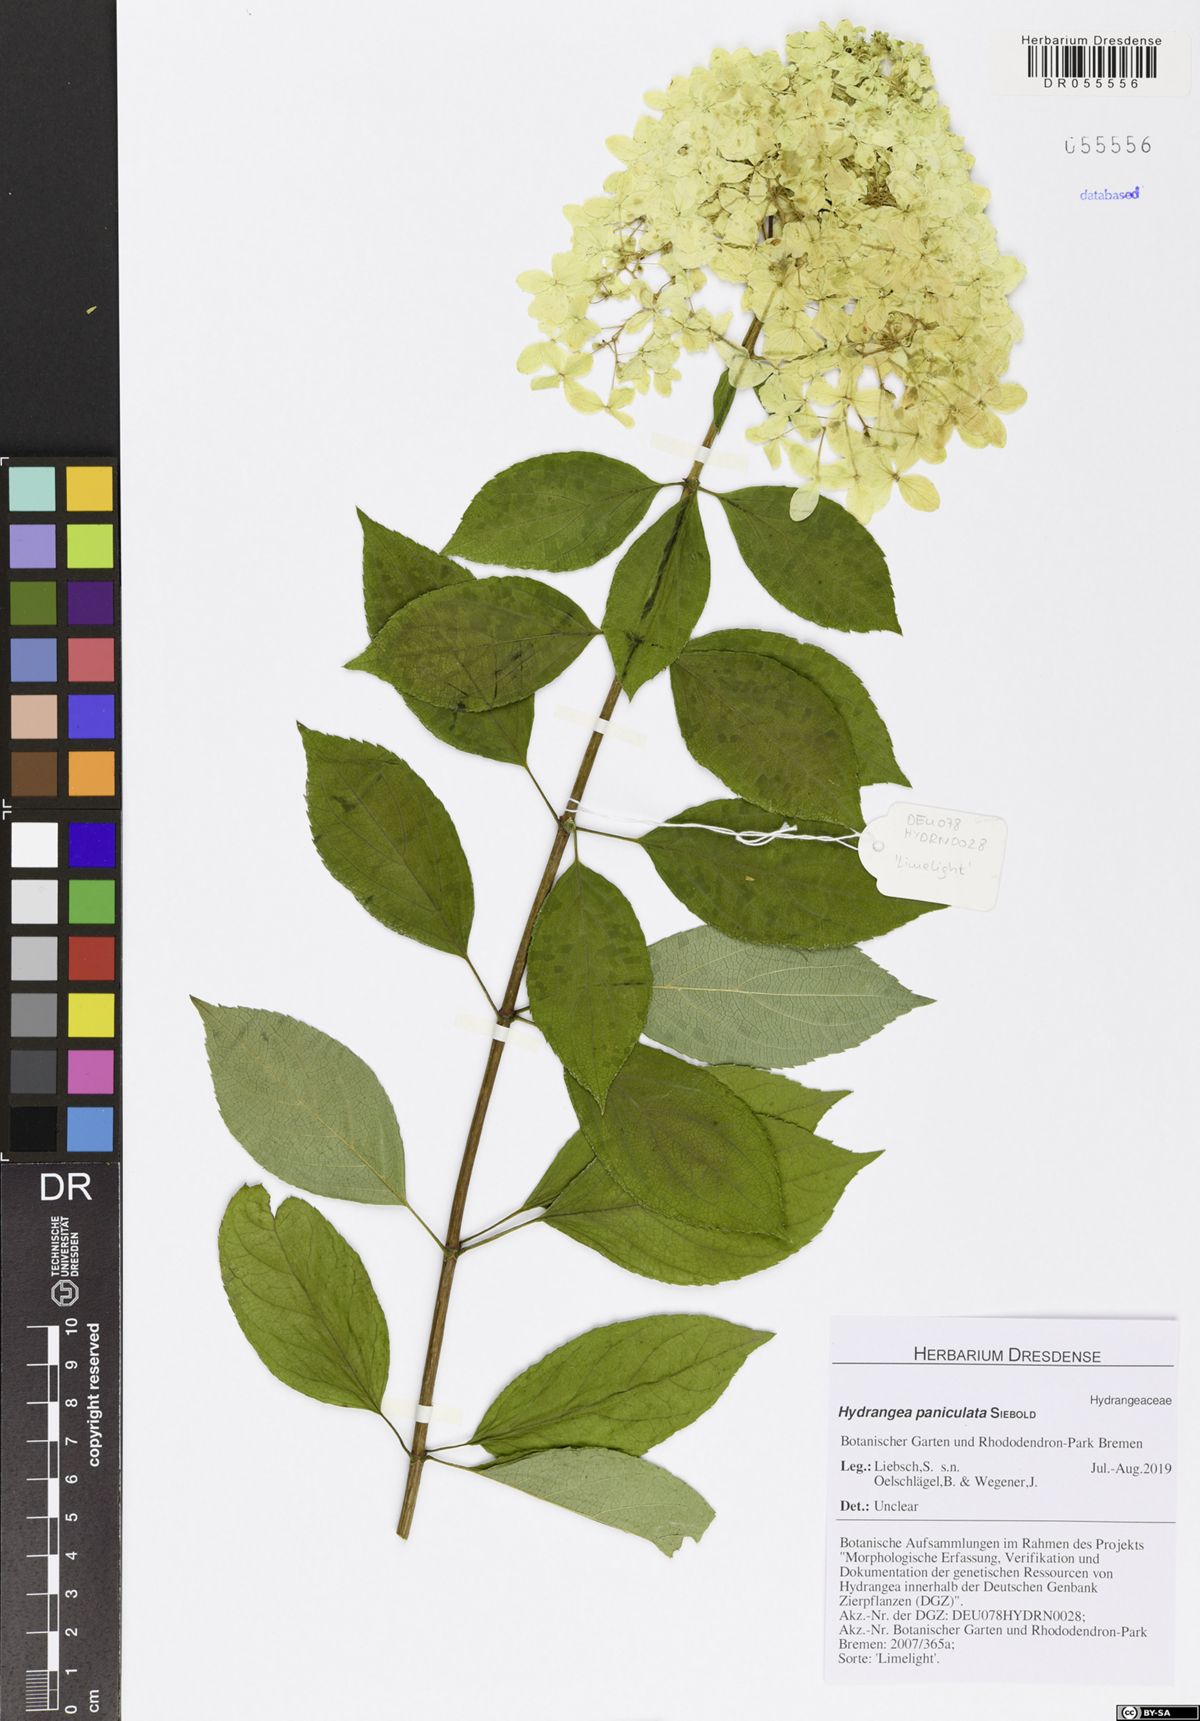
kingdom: Plantae
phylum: Tracheophyta
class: Magnoliopsida
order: Cornales
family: Hydrangeaceae
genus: Hydrangea
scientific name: Hydrangea paniculata
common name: Panicled hydrangea
